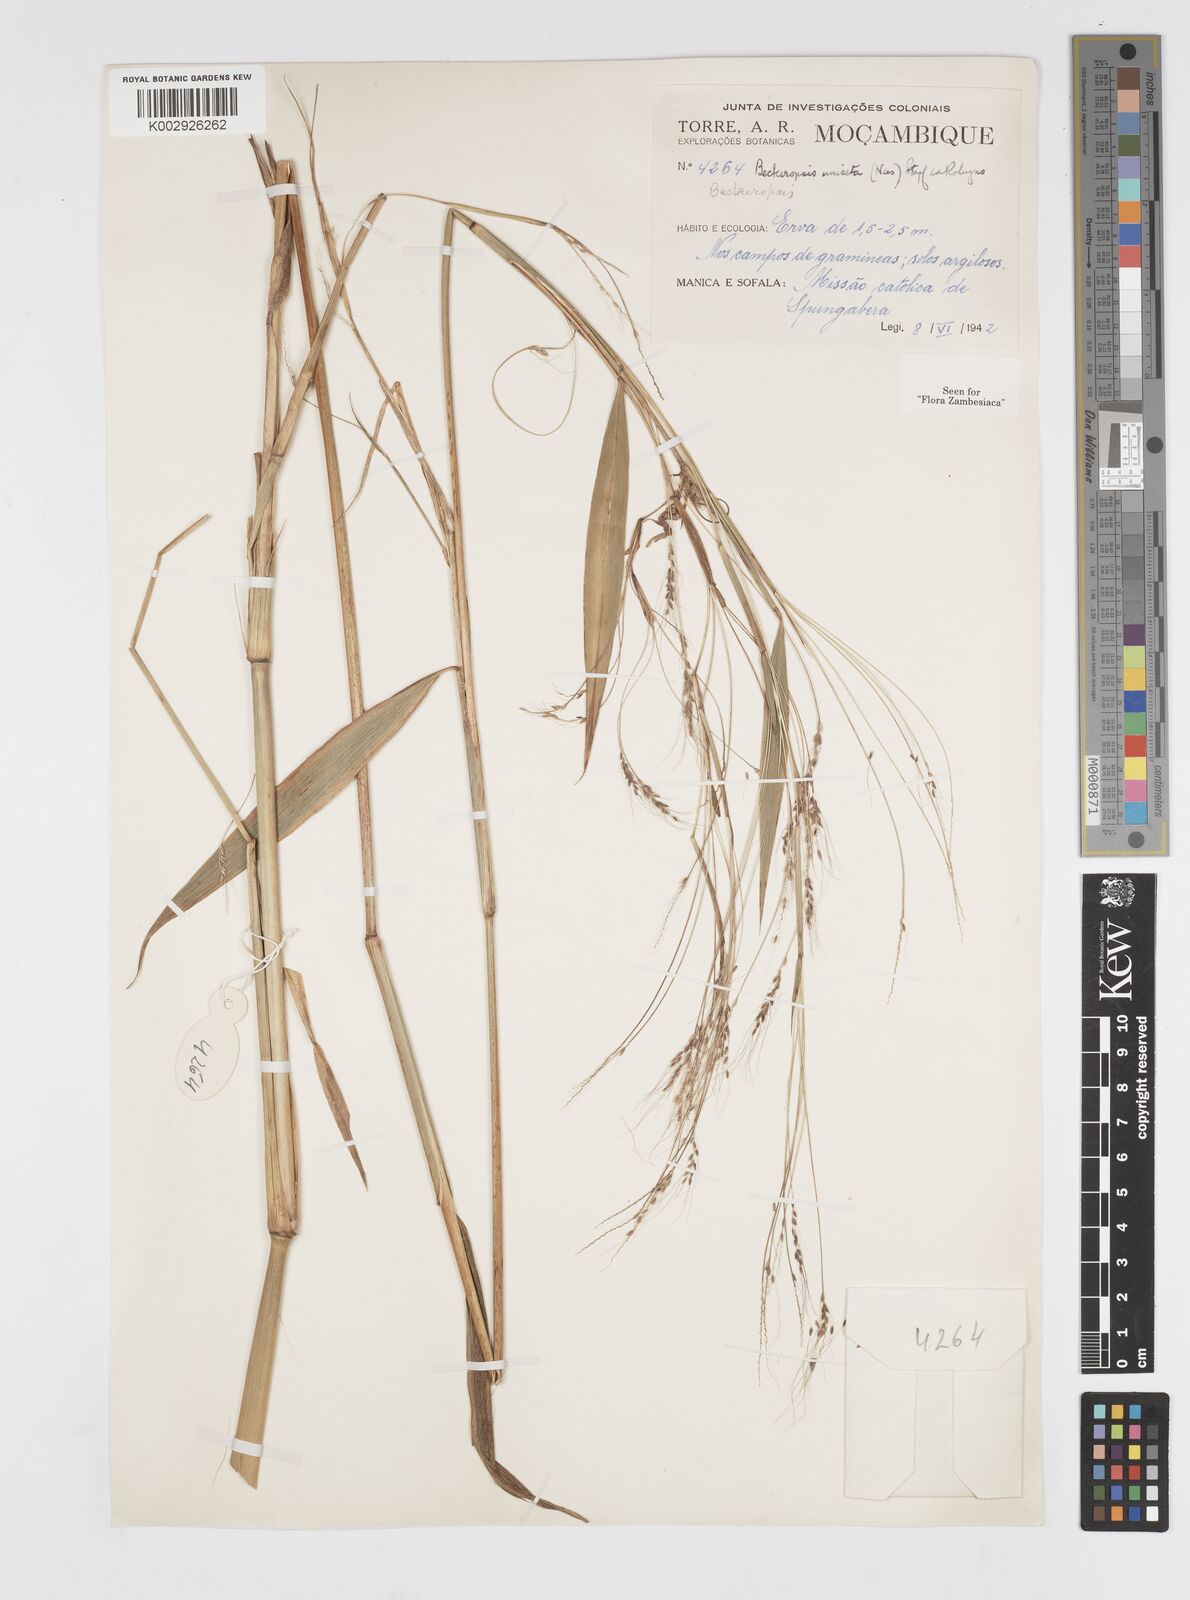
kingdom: Plantae
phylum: Tracheophyta
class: Liliopsida
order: Poales
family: Poaceae
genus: Cenchrus
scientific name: Cenchrus unisetus
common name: Natal grass
